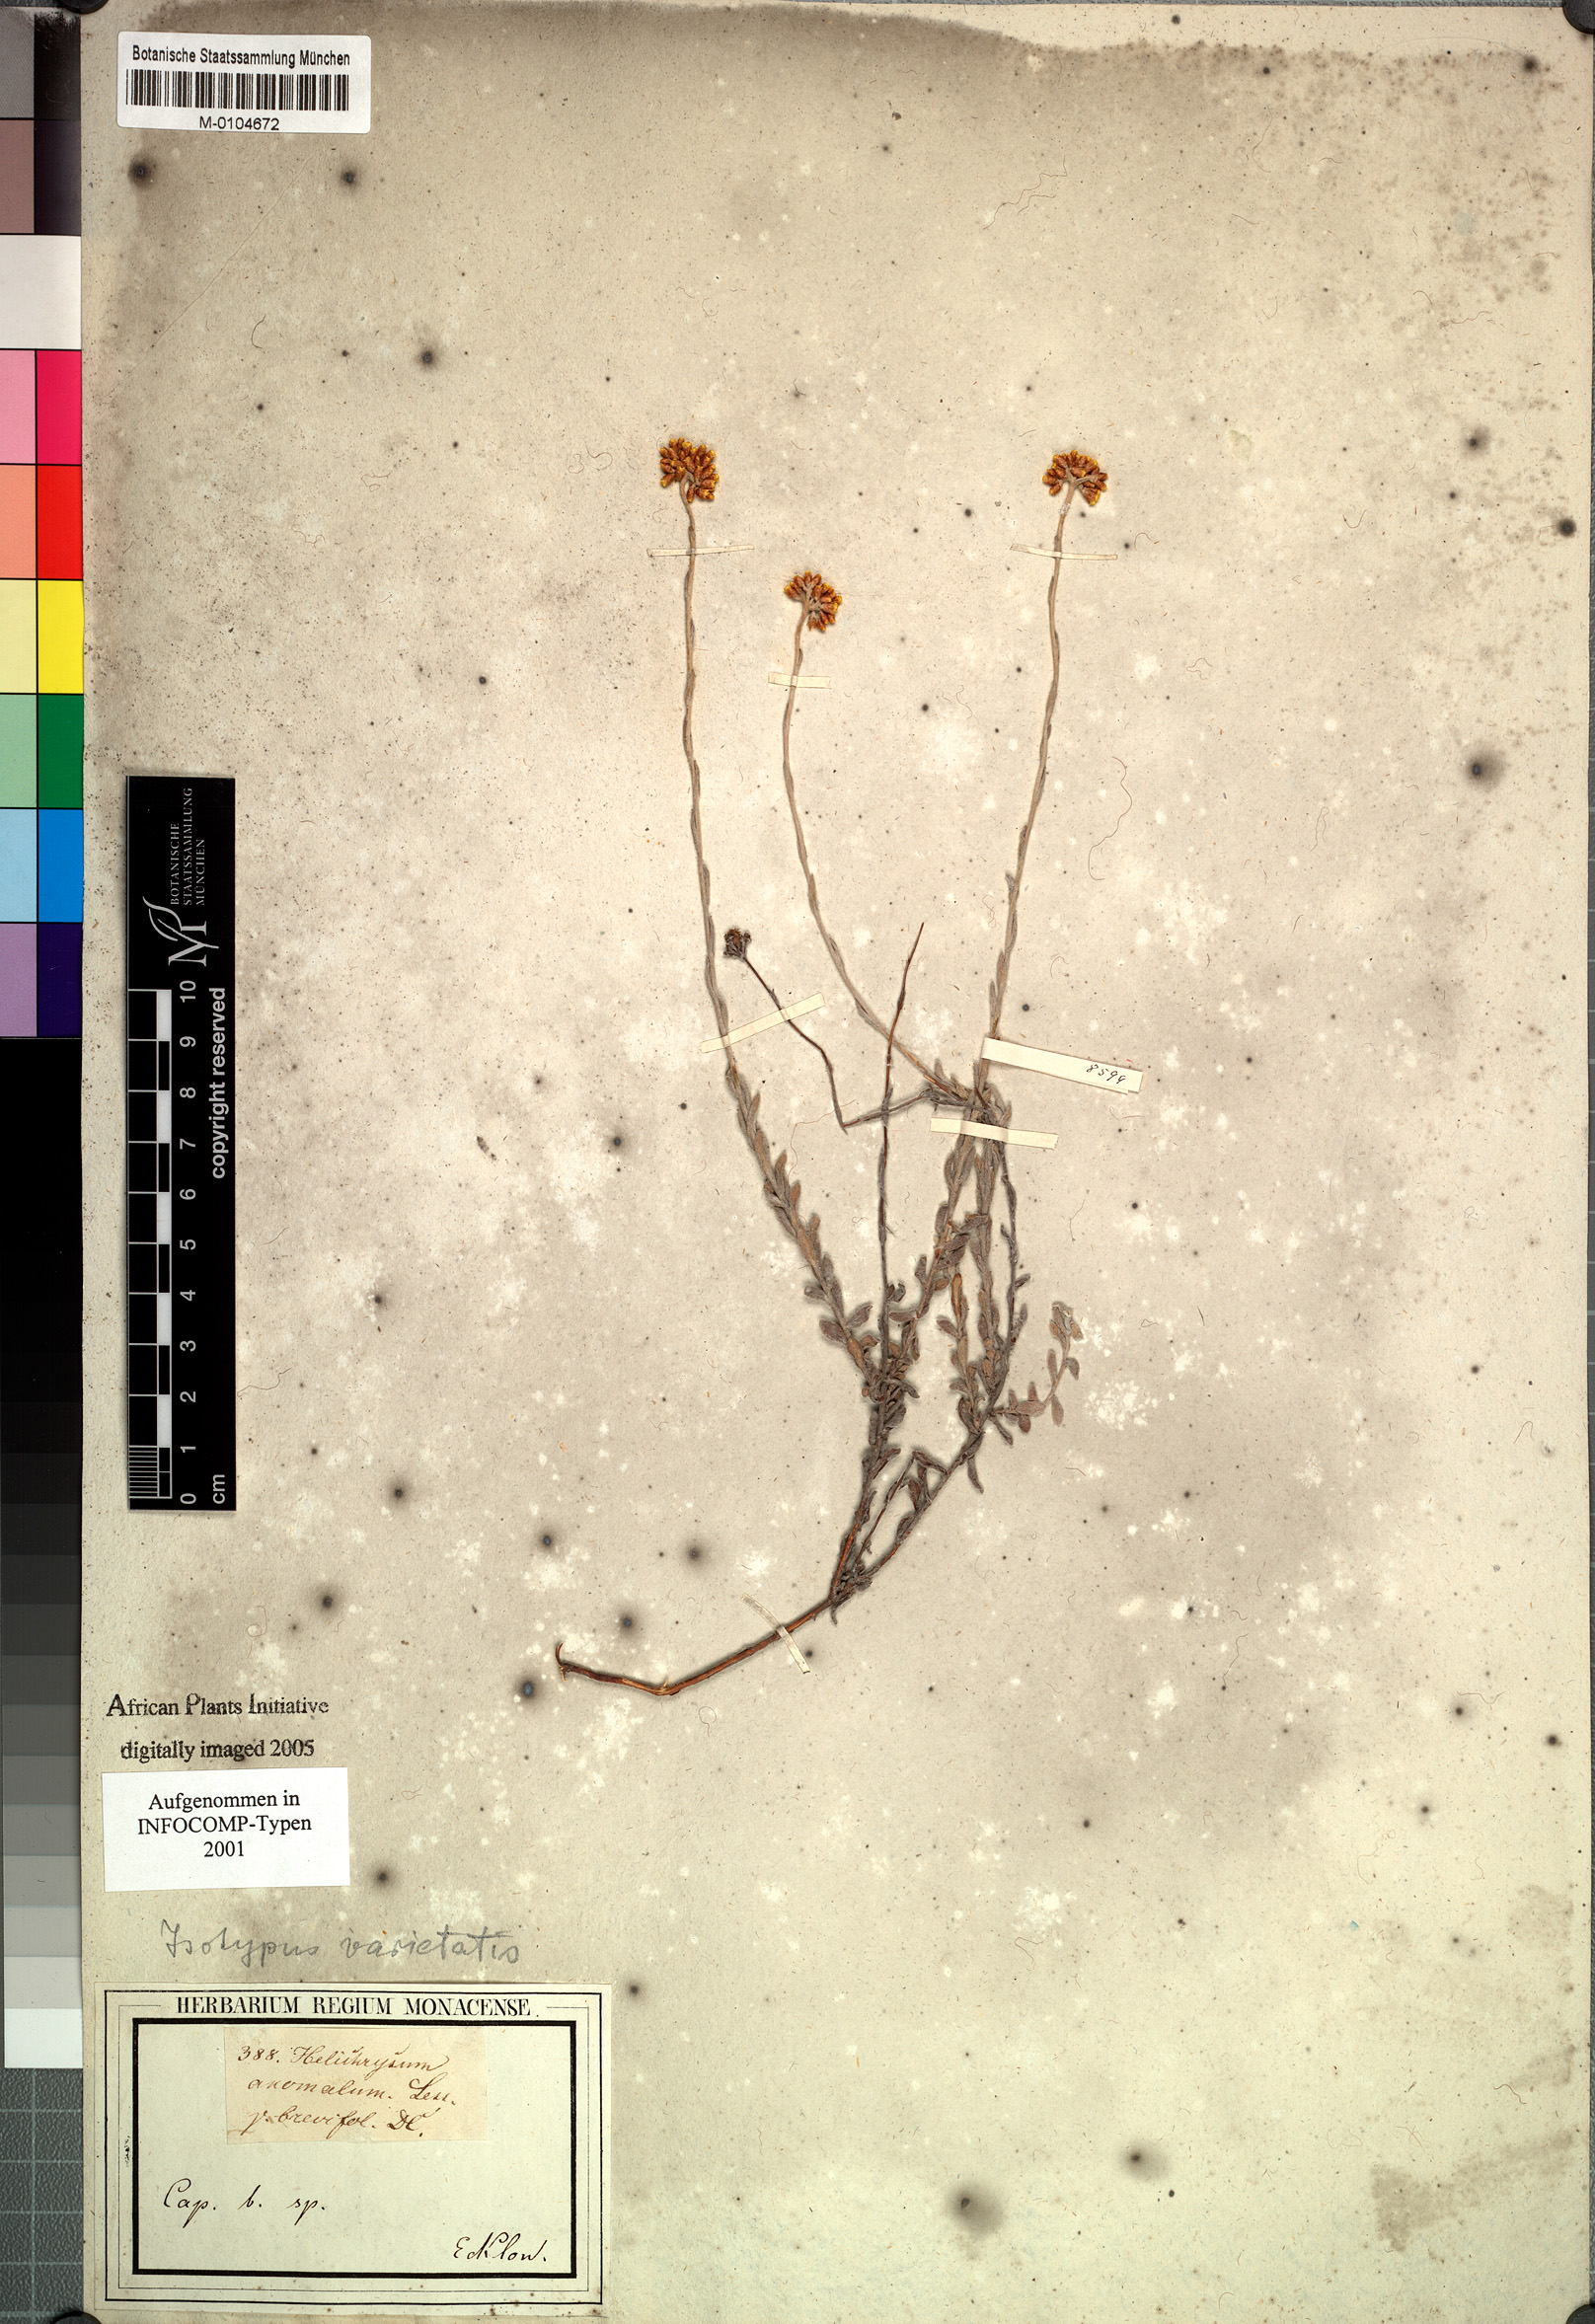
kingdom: Plantae
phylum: Tracheophyta
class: Magnoliopsida
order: Asterales
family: Asteraceae
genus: Helichrysum
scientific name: Helichrysum anomalum
